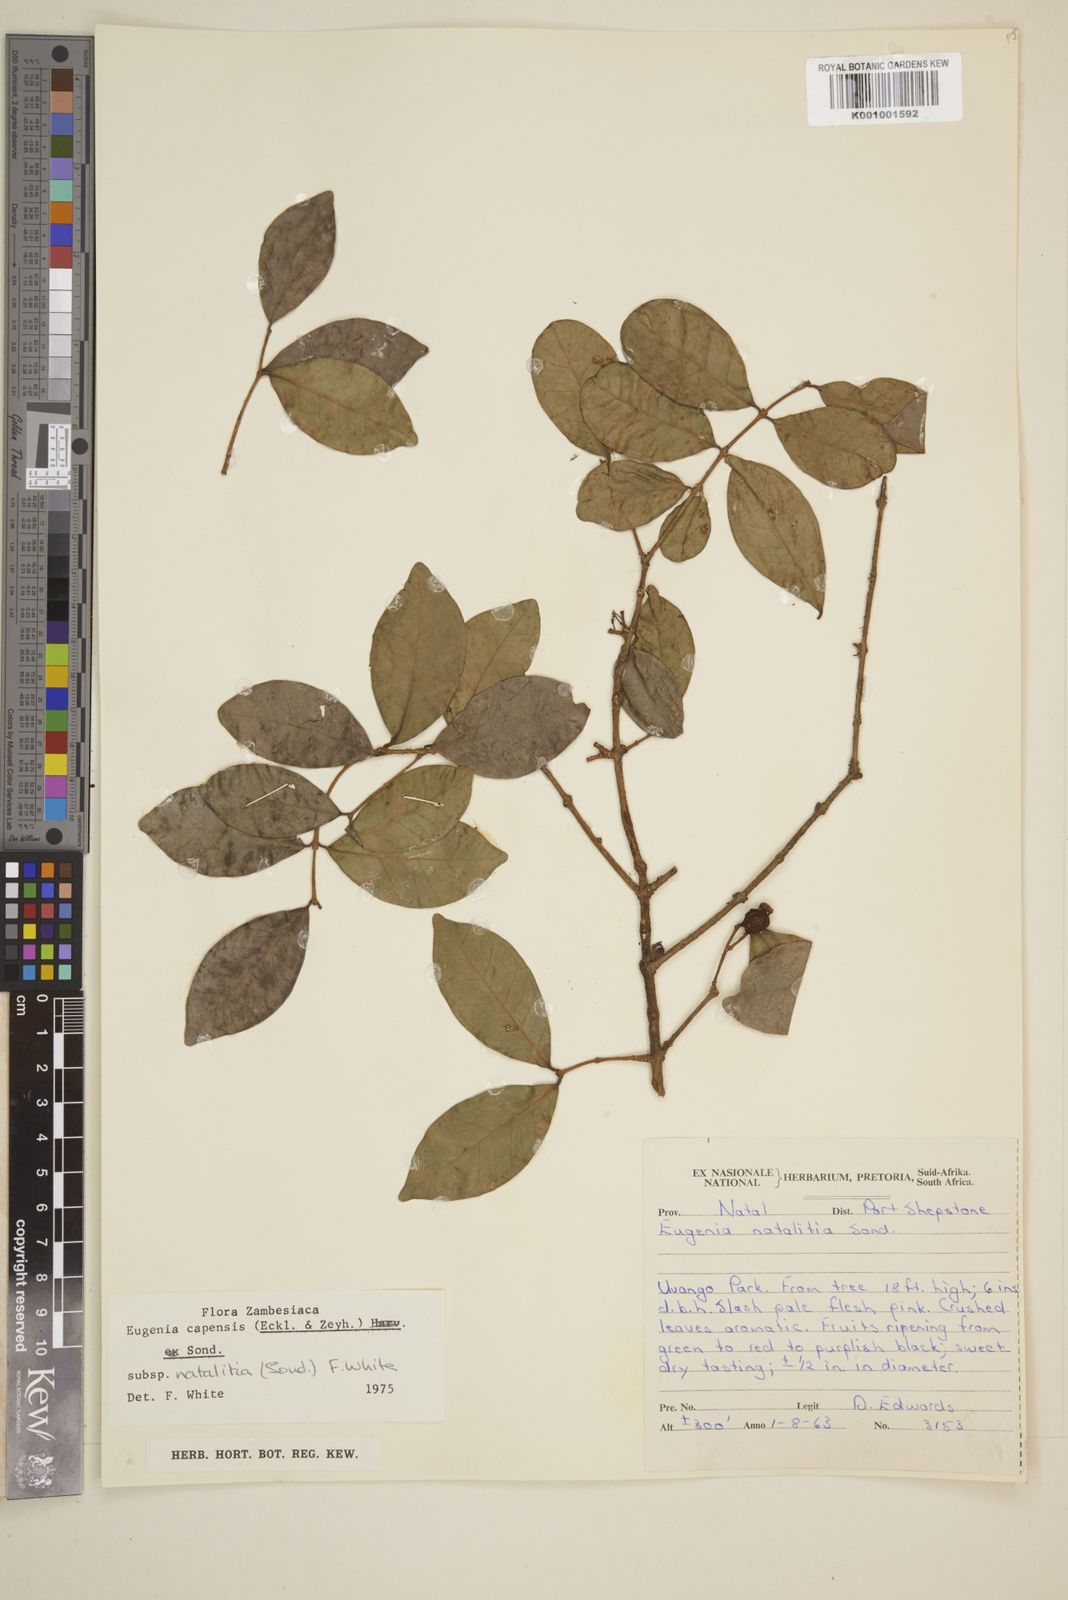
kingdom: Plantae
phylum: Tracheophyta
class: Magnoliopsida
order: Myrtales
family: Myrtaceae
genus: Eugenia
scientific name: Eugenia natalitia
